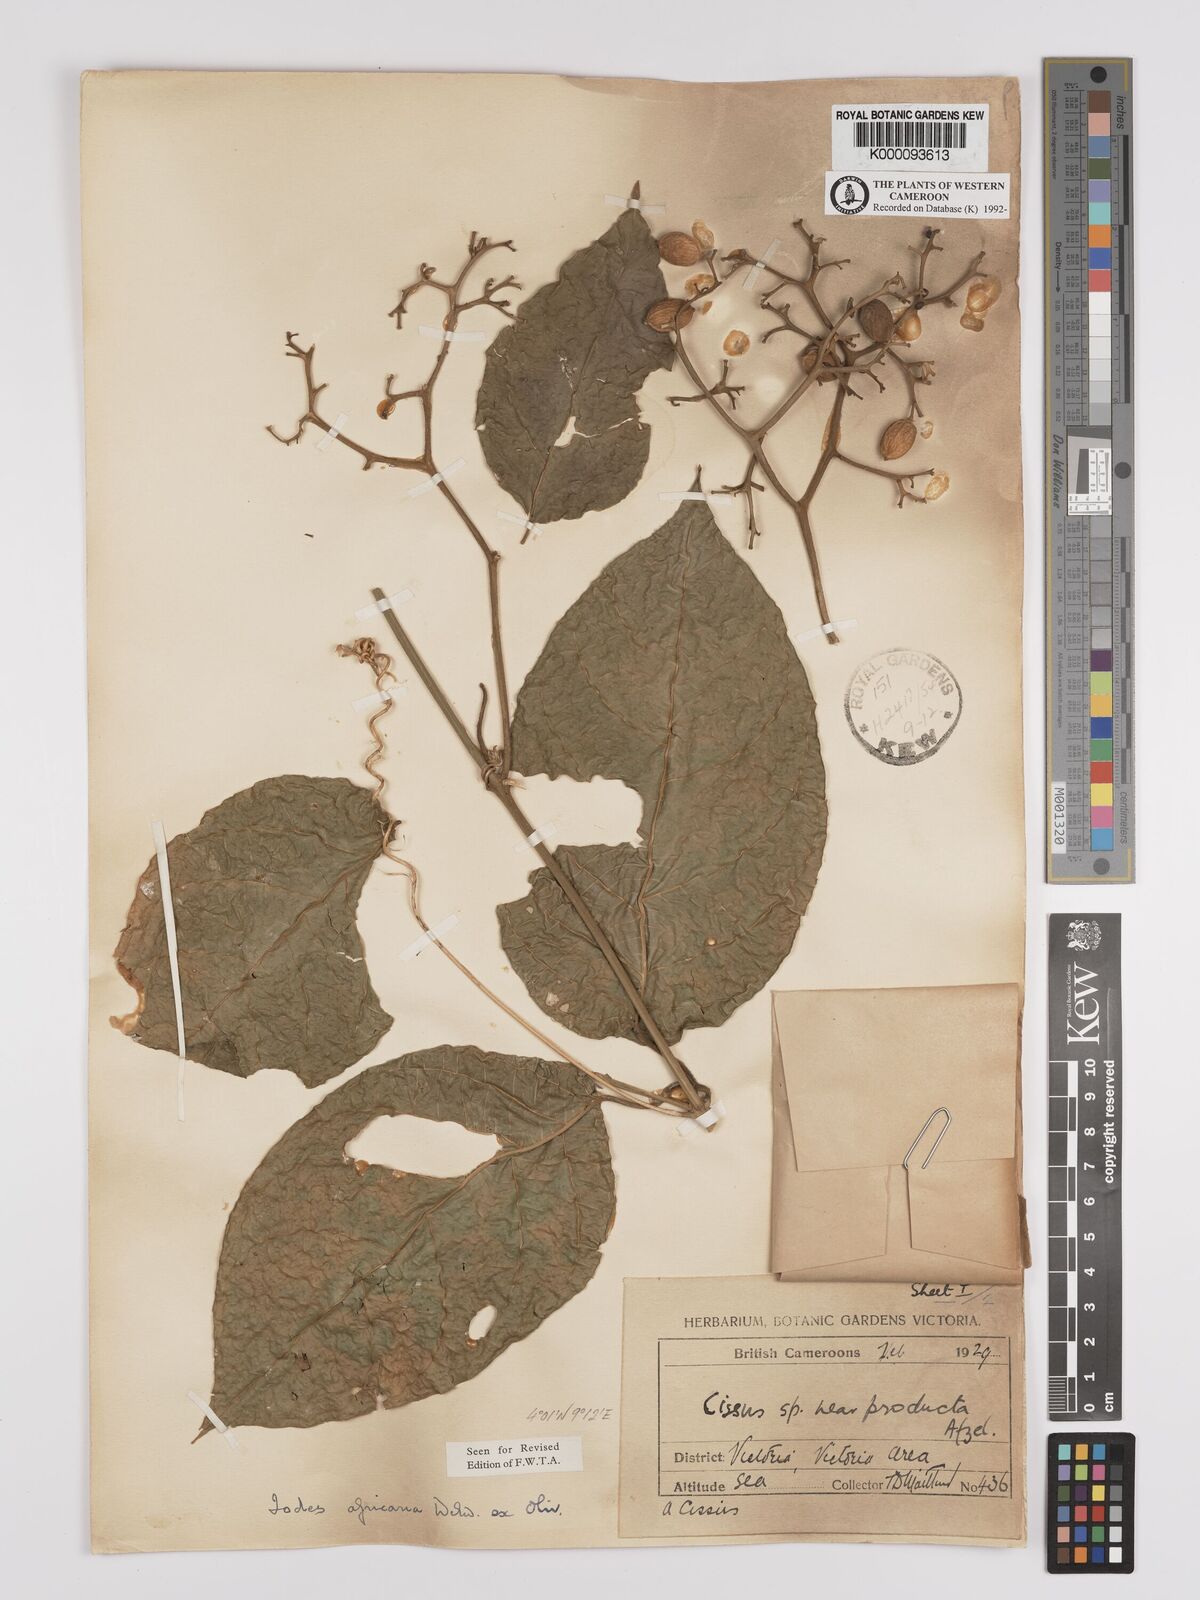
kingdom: Plantae
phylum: Tracheophyta
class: Magnoliopsida
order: Icacinales
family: Icacinaceae
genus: Iodes
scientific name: Iodes africana
